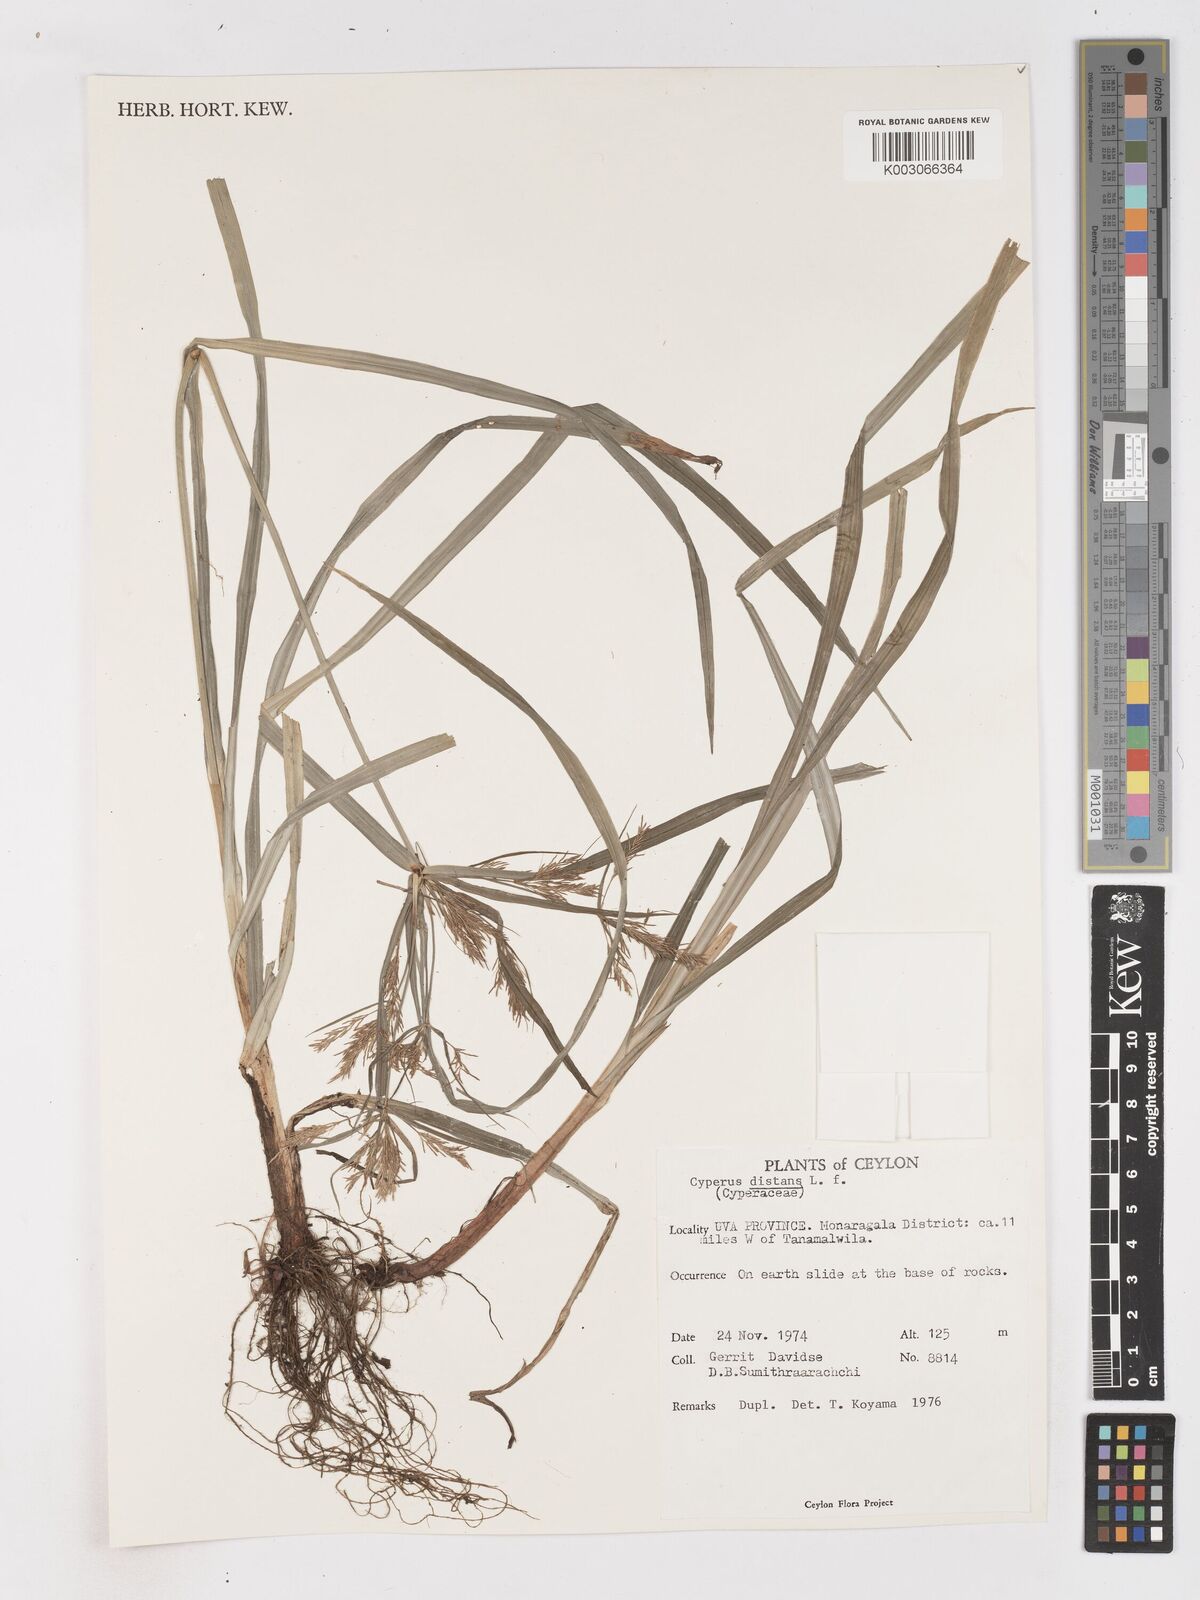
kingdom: Plantae
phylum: Tracheophyta
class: Liliopsida
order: Poales
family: Cyperaceae
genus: Cyperus
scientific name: Cyperus distans
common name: Slender cyperus
